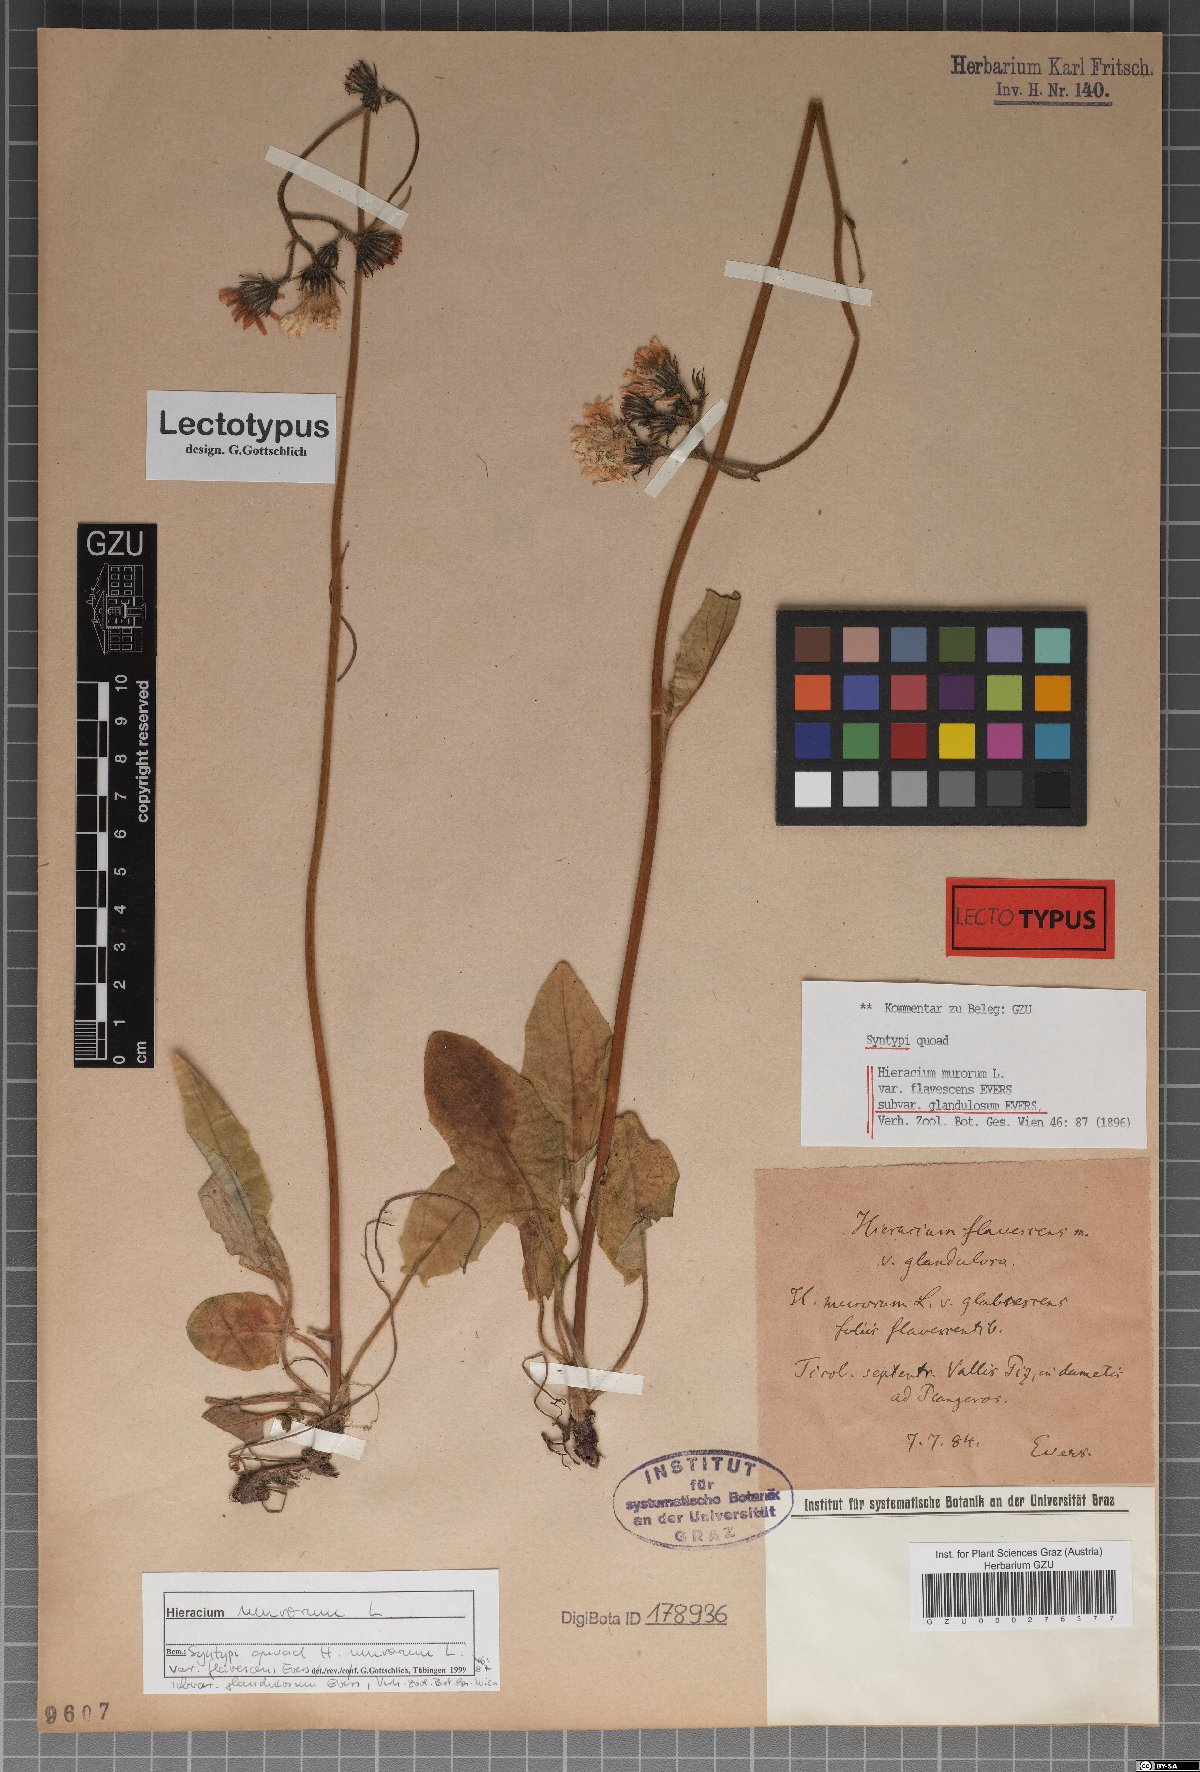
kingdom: Plantae
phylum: Tracheophyta
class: Magnoliopsida
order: Asterales
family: Asteraceae
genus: Hieracium
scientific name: Hieracium murorum
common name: Wall hawkweed
